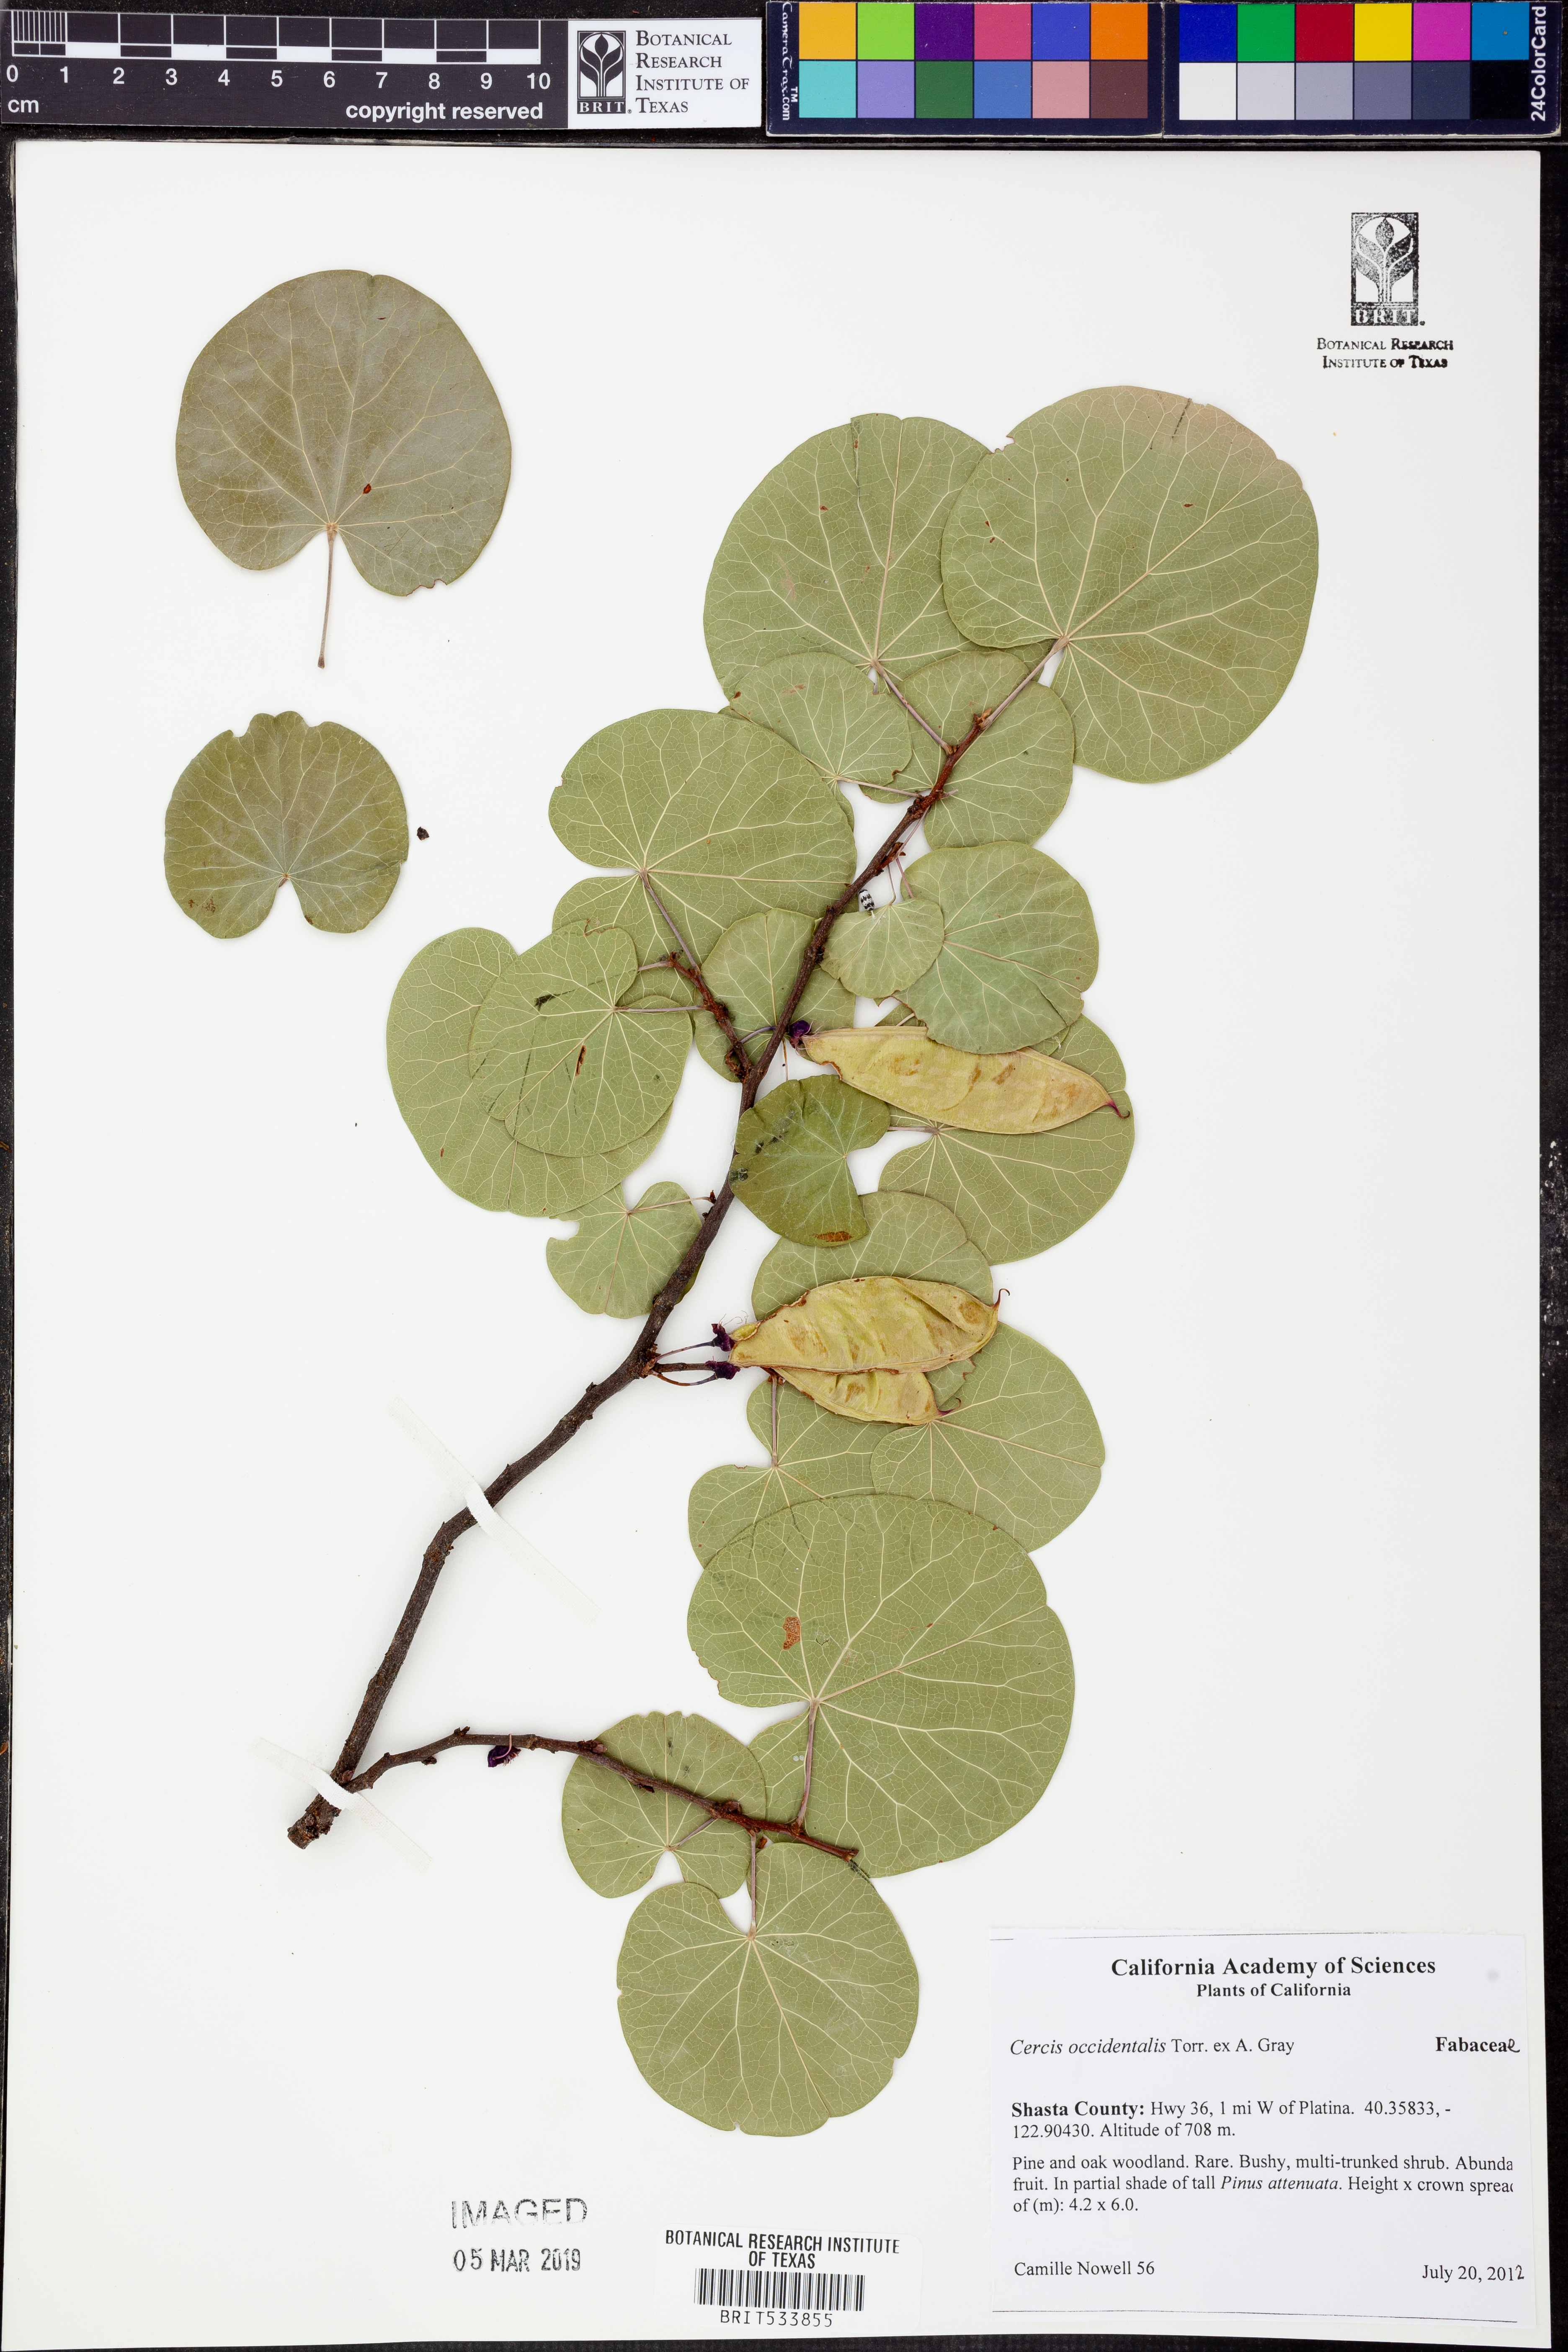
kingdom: Plantae
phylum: Tracheophyta
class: Magnoliopsida
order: Fabales
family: Fabaceae
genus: Cercis
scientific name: Cercis occidentalis
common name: California redbud
